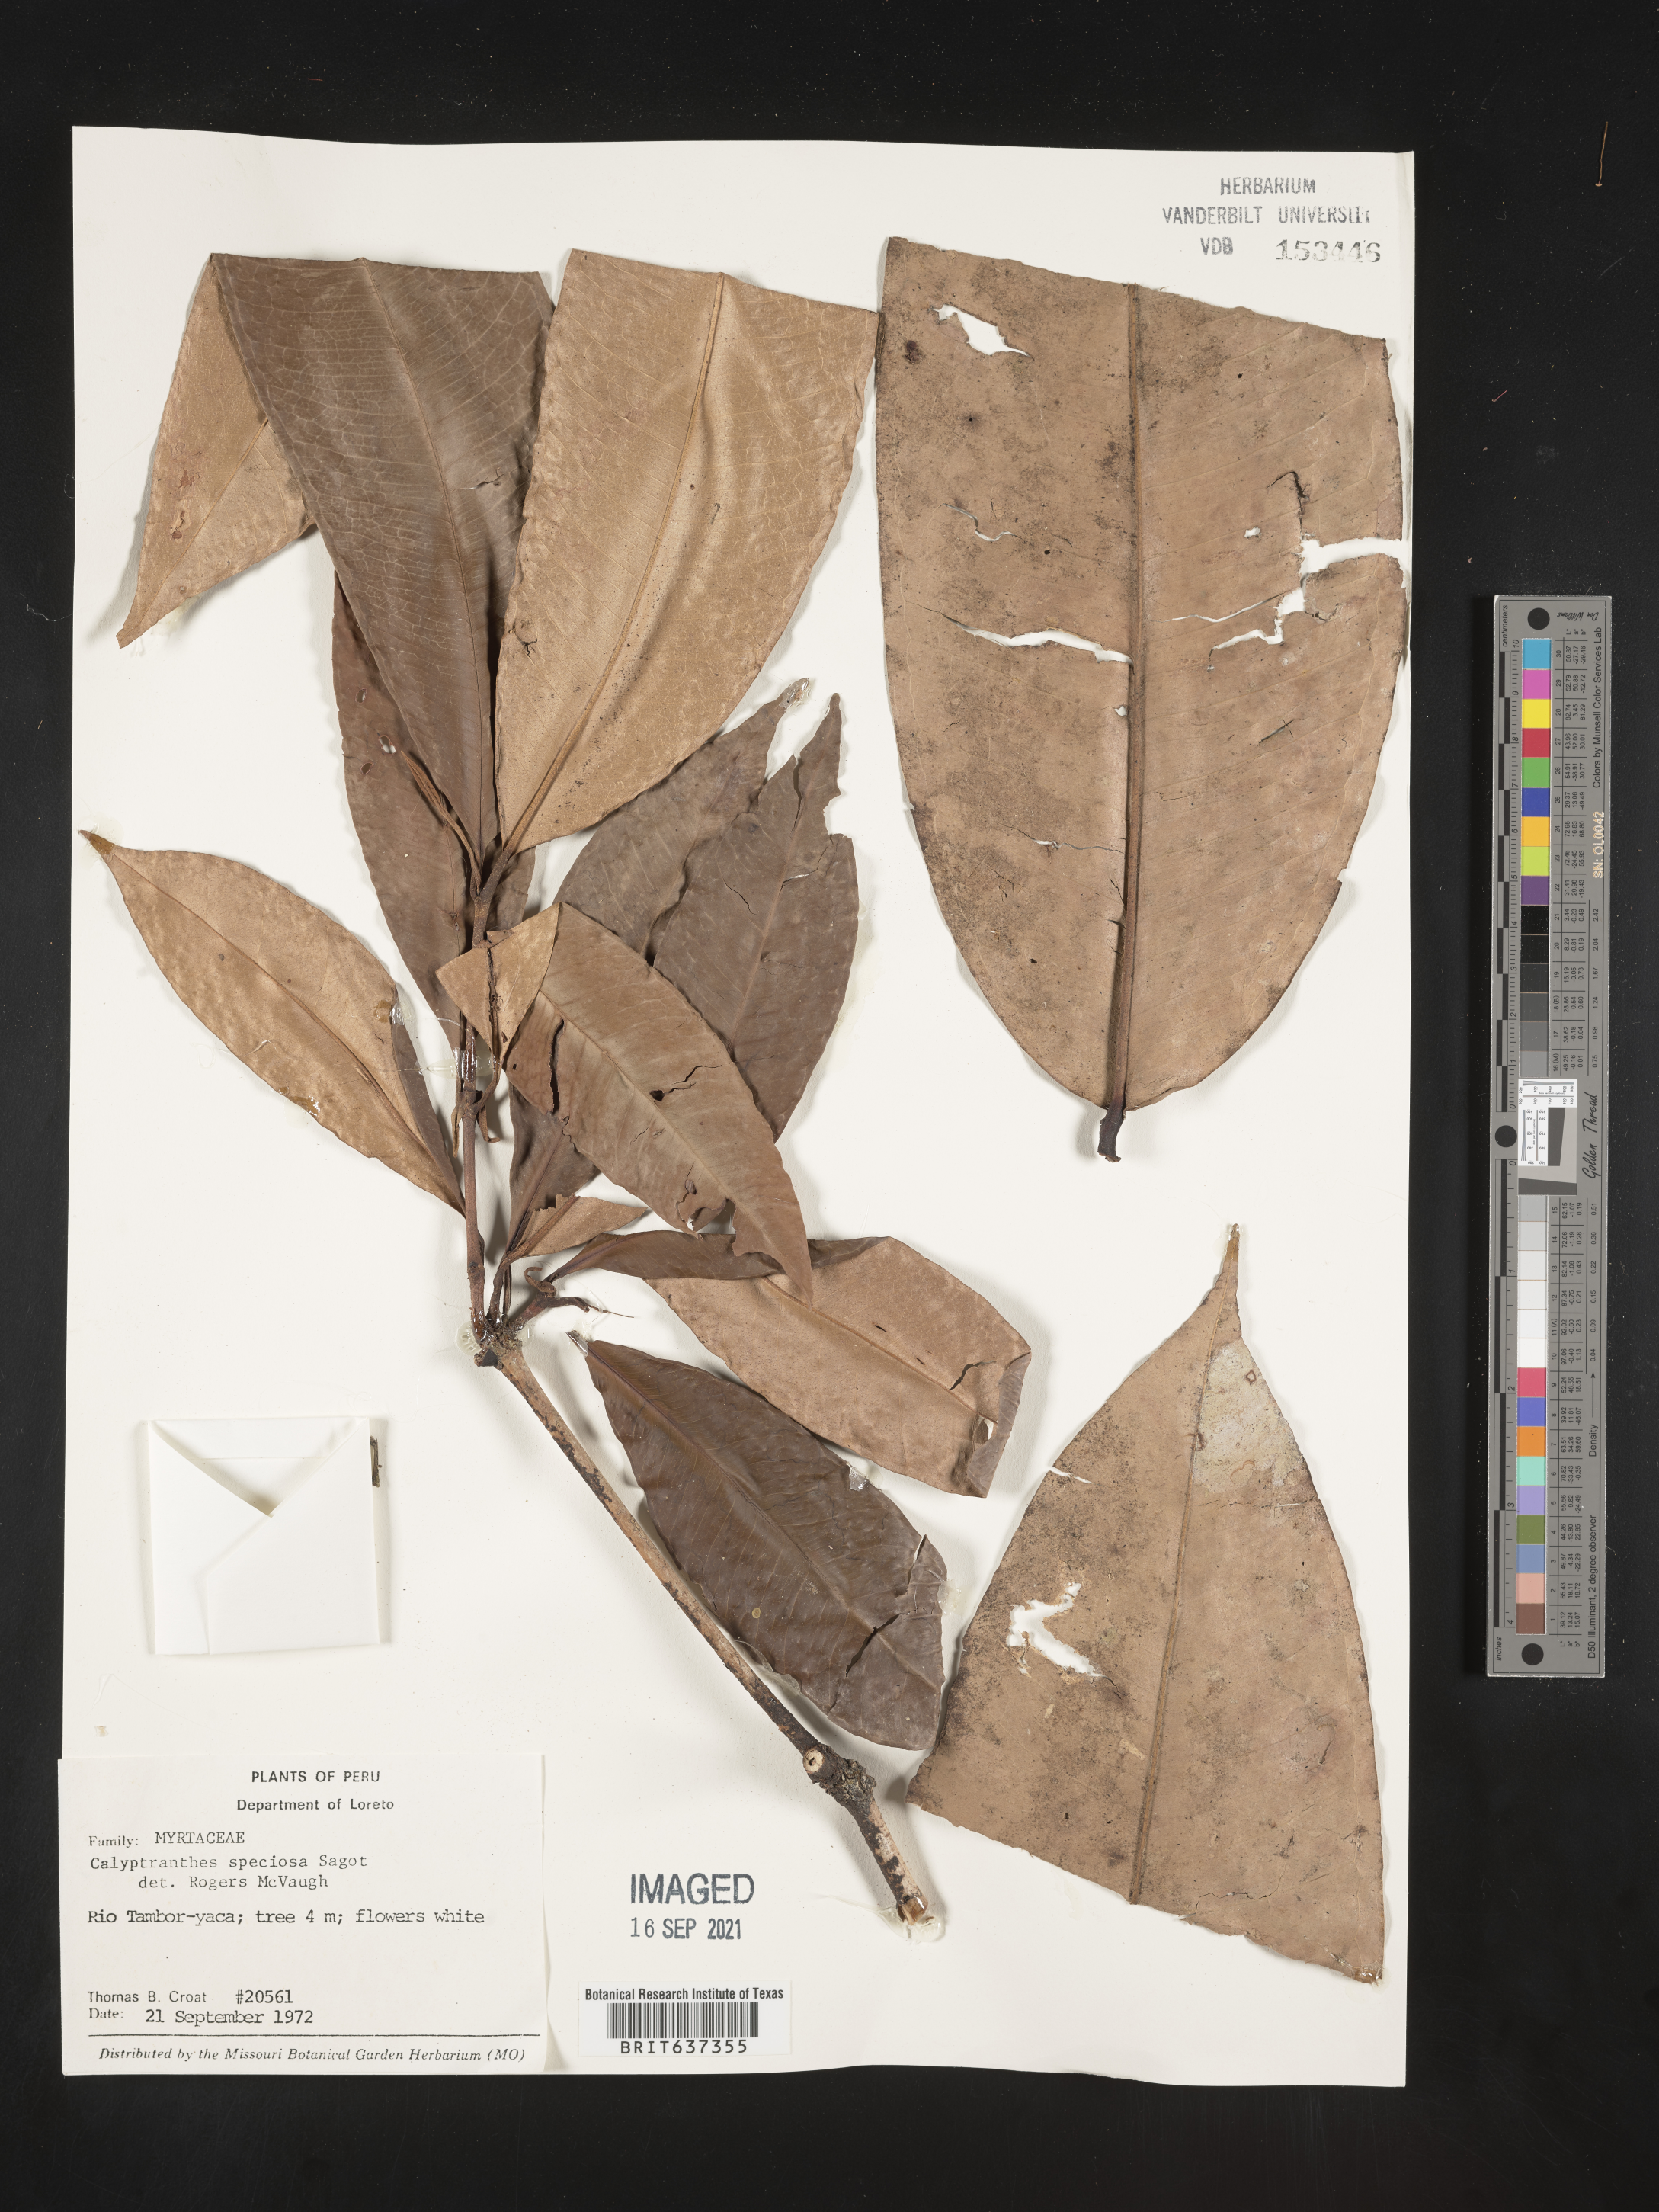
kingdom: Plantae
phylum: Tracheophyta
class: Magnoliopsida
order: Myrtales
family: Myrtaceae
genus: Calyptranthes
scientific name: Calyptranthes
